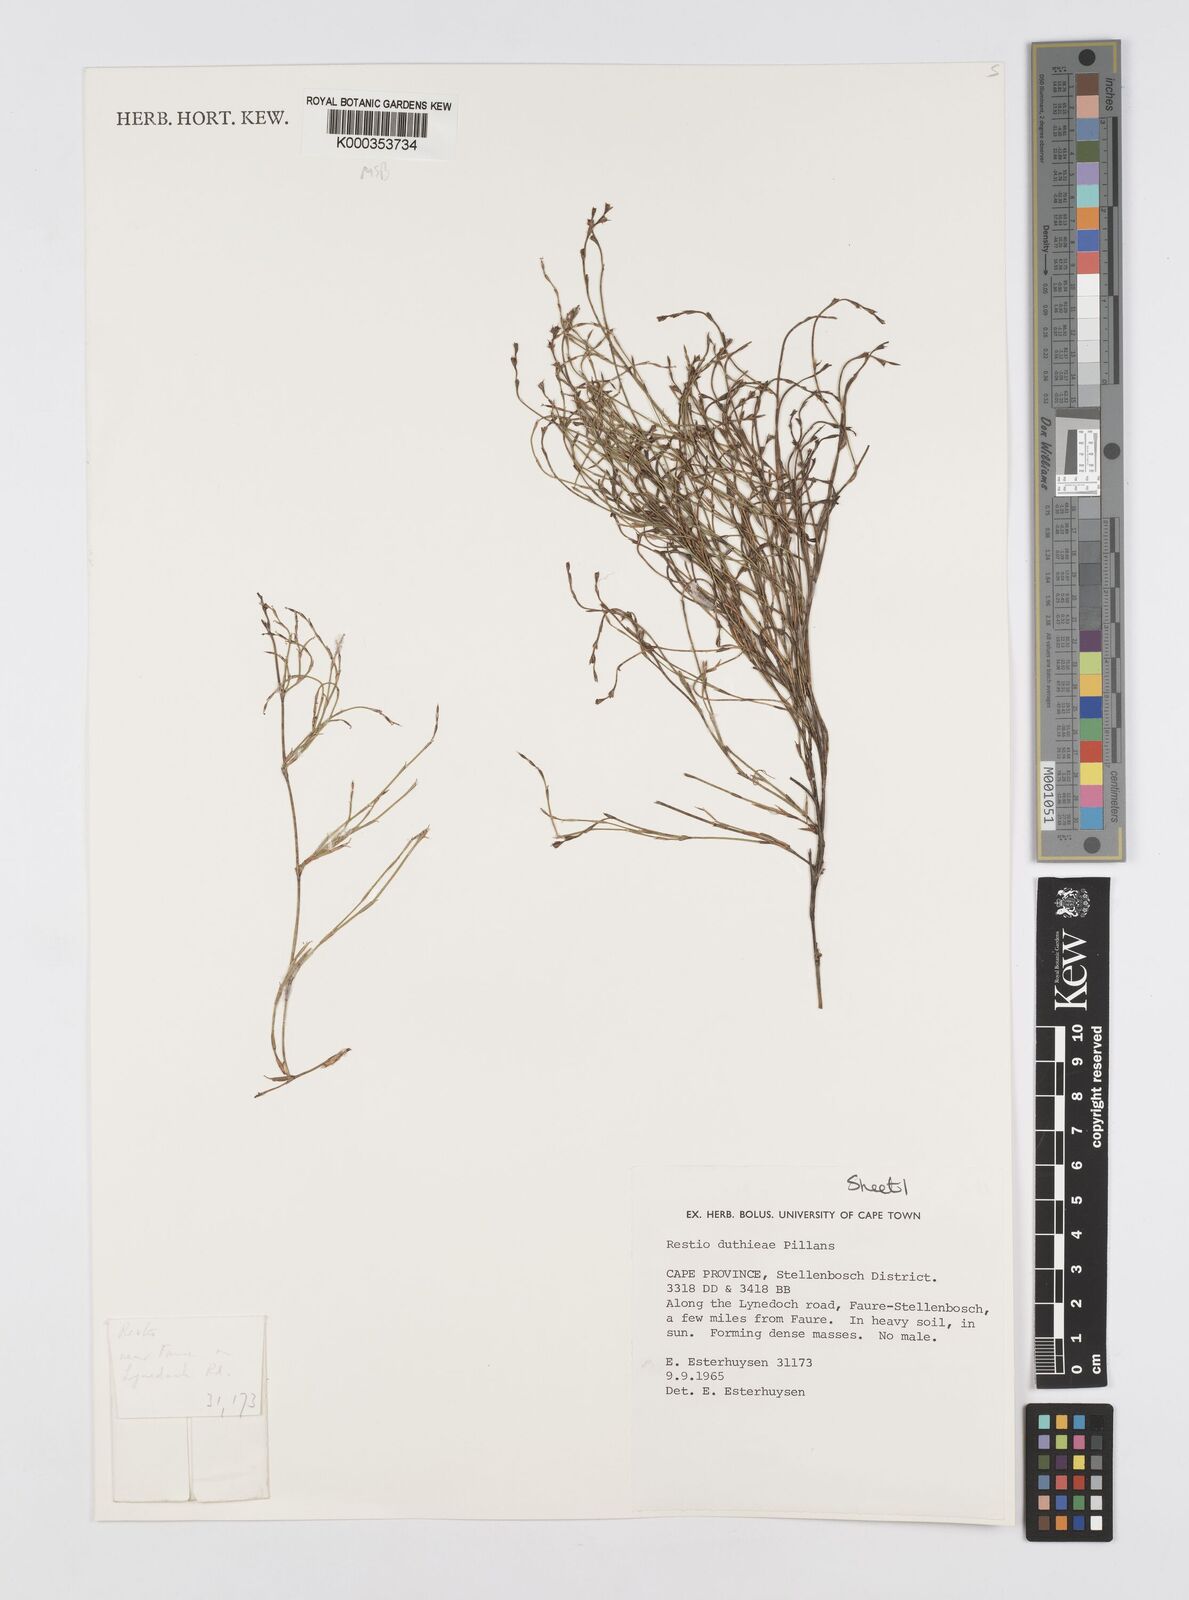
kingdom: Plantae
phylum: Tracheophyta
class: Liliopsida
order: Poales
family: Restionaceae
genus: Restio
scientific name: Restio duthieae
